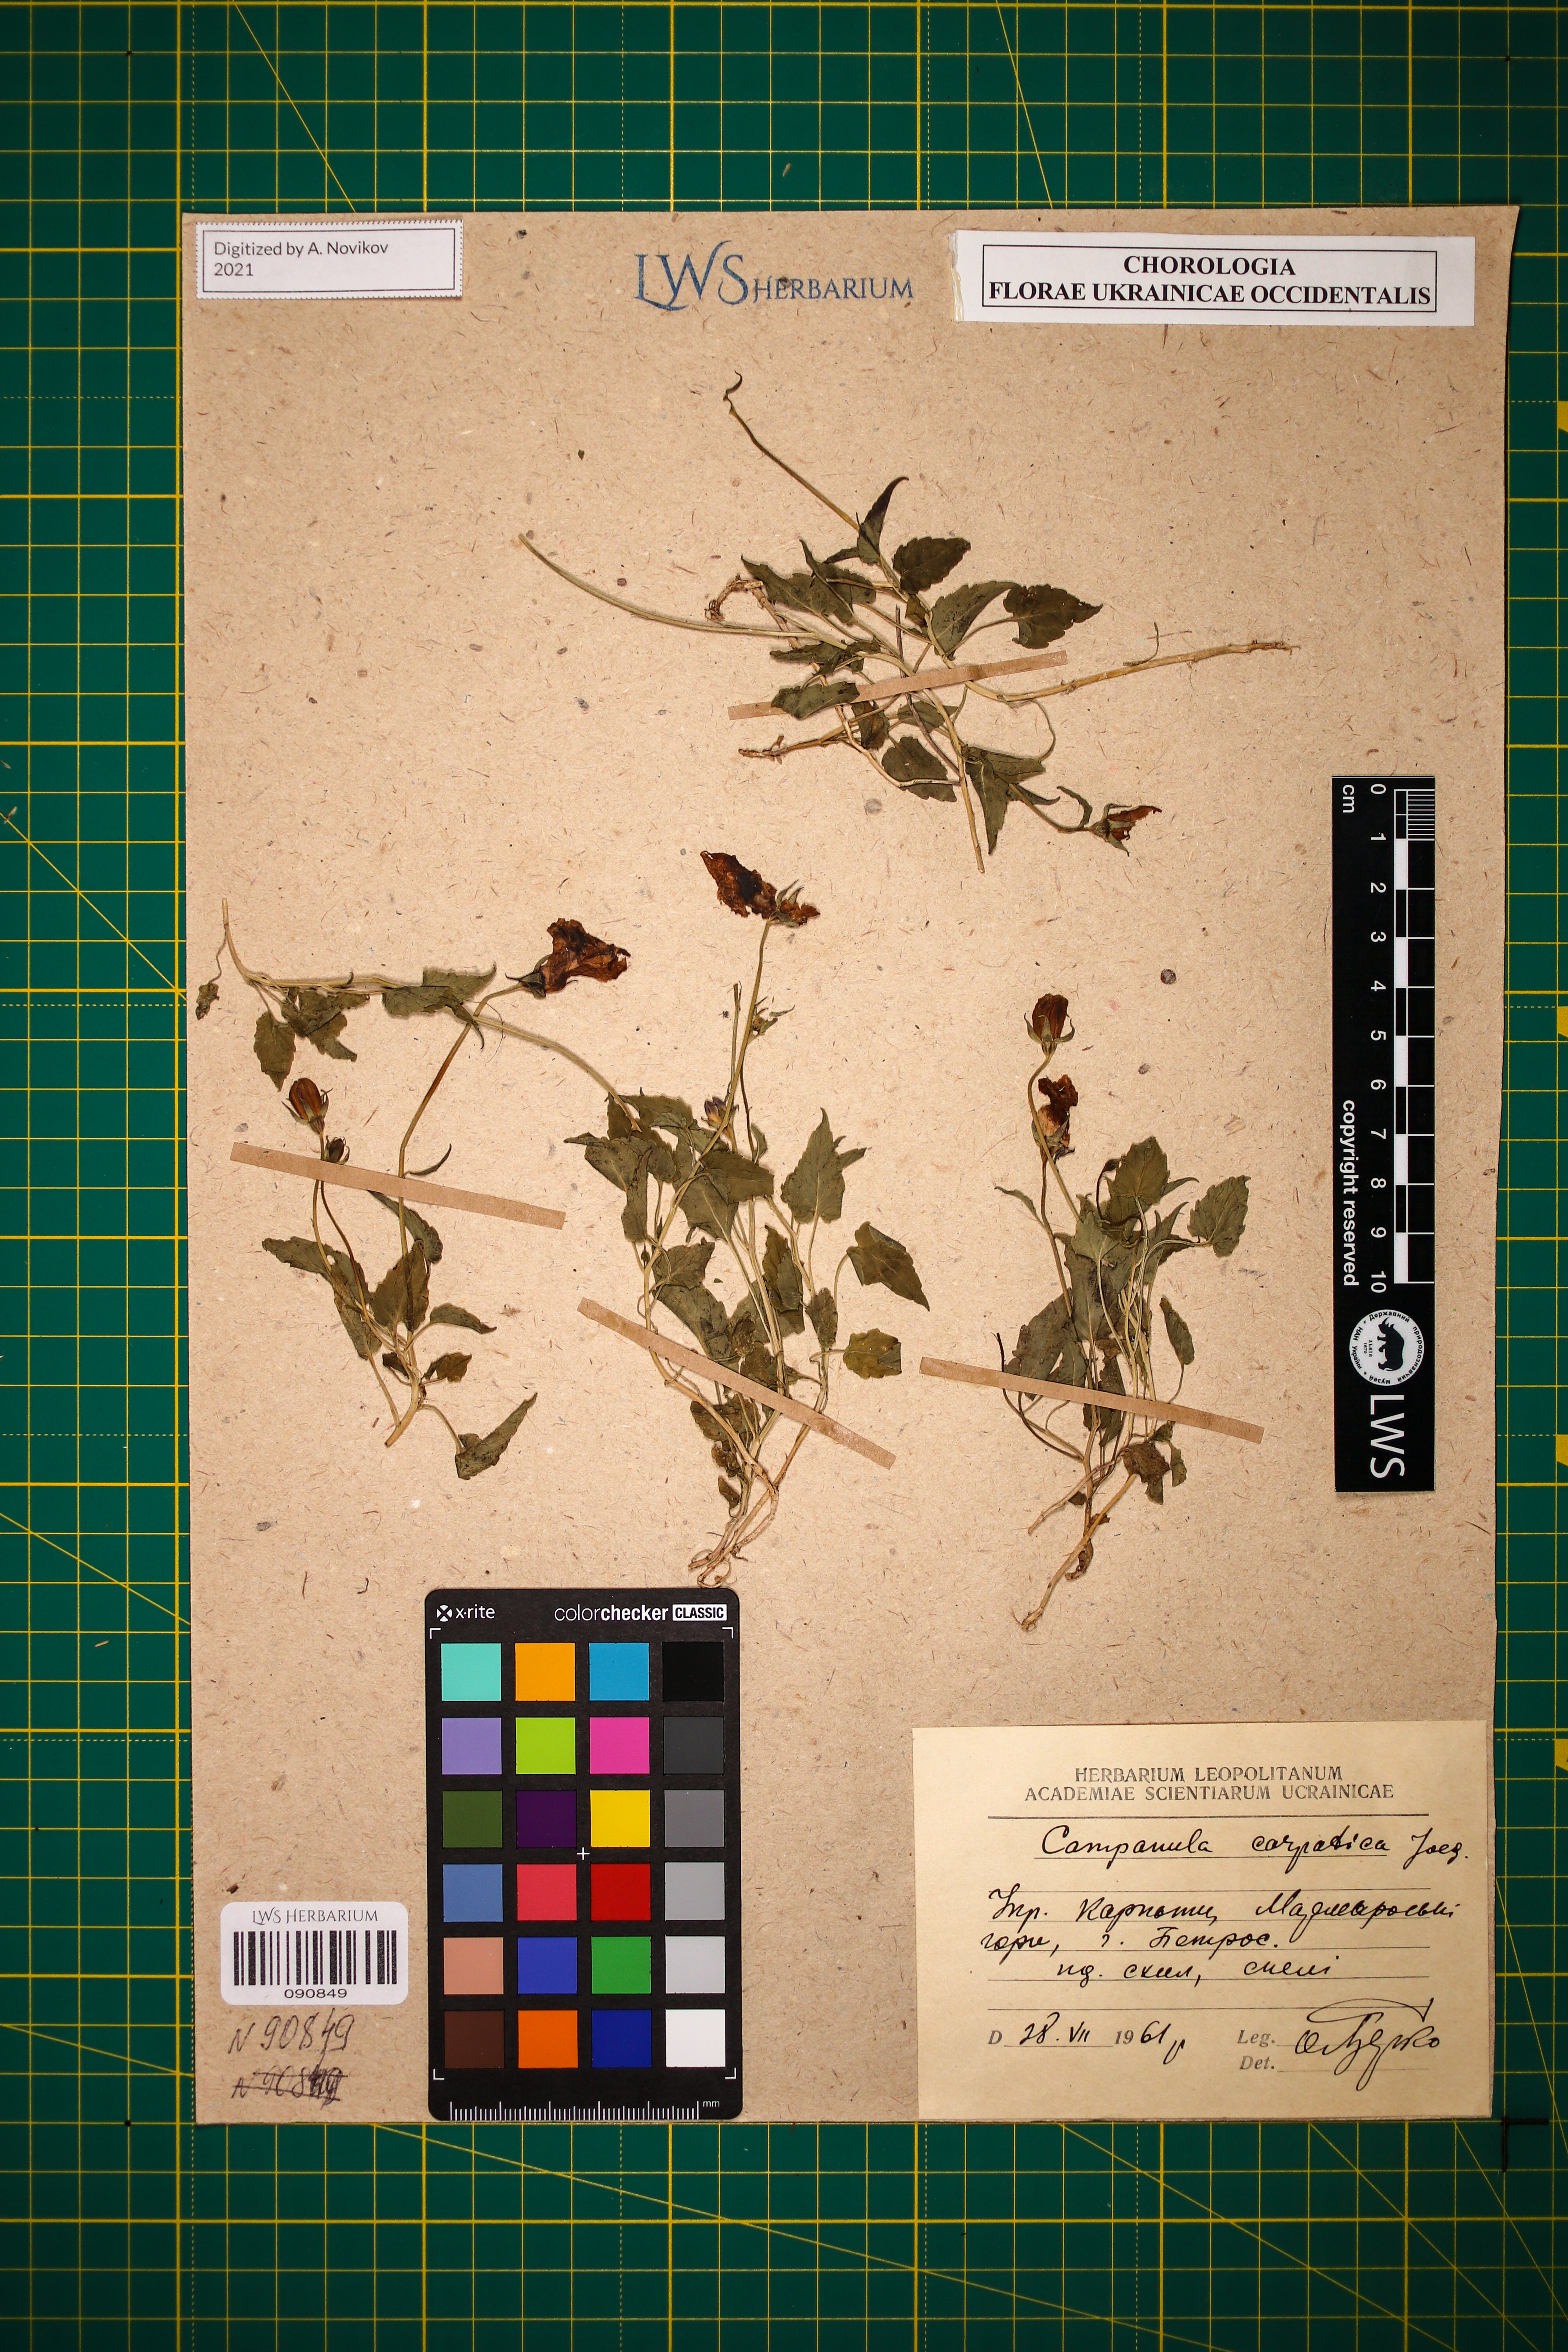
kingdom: Plantae
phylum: Tracheophyta
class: Magnoliopsida
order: Asterales
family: Campanulaceae
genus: Campanula
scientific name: Campanula carpatica
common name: Tussock bellflower
